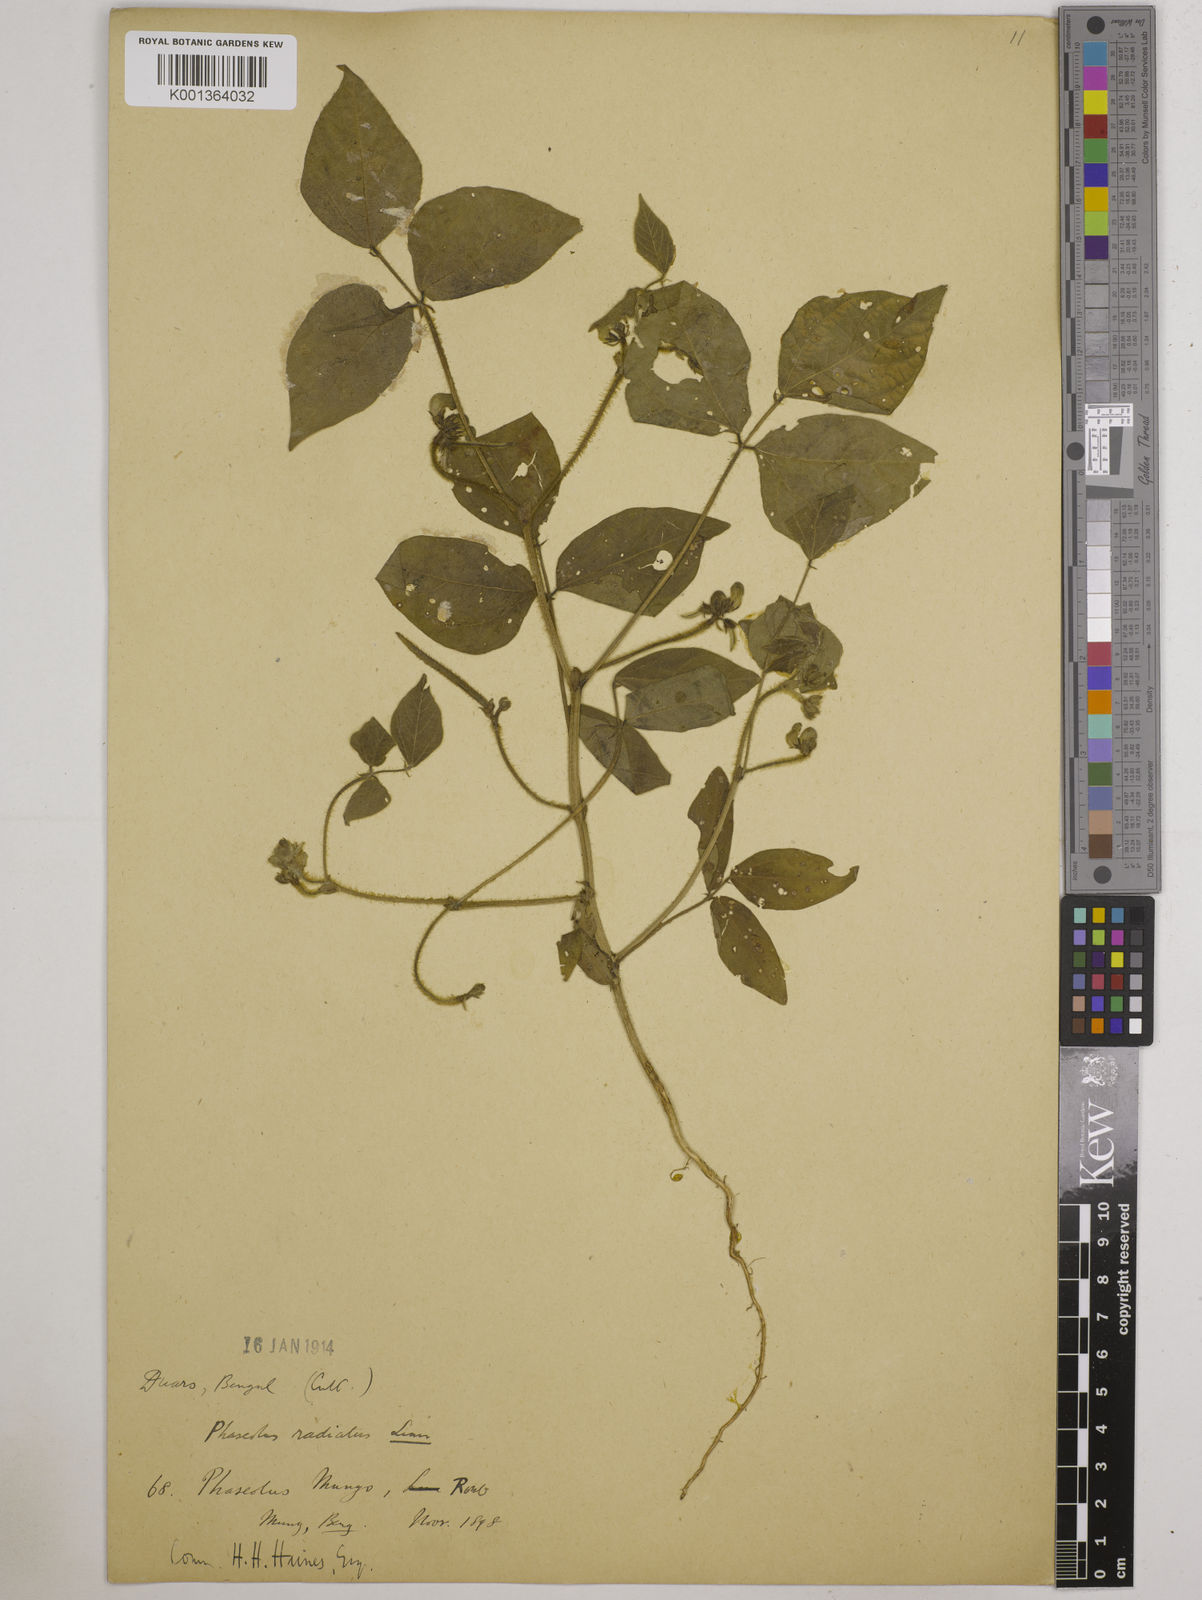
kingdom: Plantae
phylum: Tracheophyta
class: Magnoliopsida
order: Fabales
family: Fabaceae
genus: Vigna
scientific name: Vigna radiata
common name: Mung-bean
